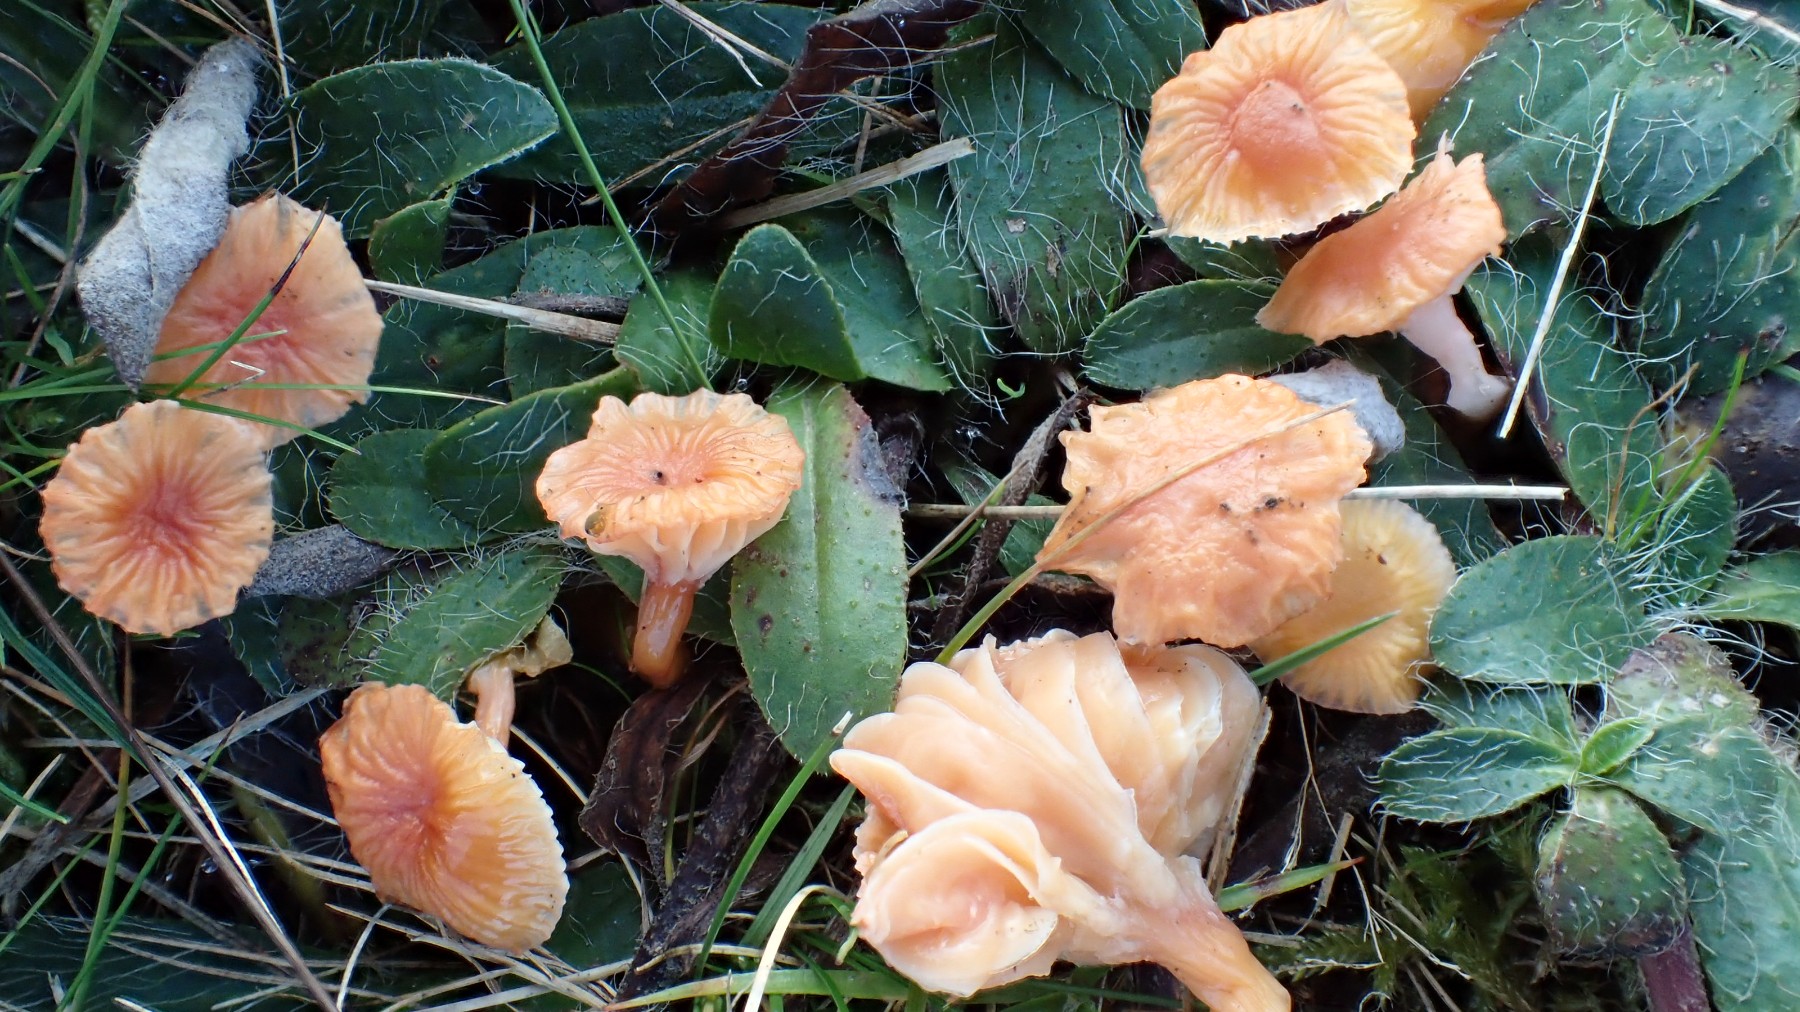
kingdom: Fungi
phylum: Basidiomycota
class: Agaricomycetes
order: Agaricales
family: Hygrophoraceae
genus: Gliophorus
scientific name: Gliophorus laetus
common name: brusk-vokshat
